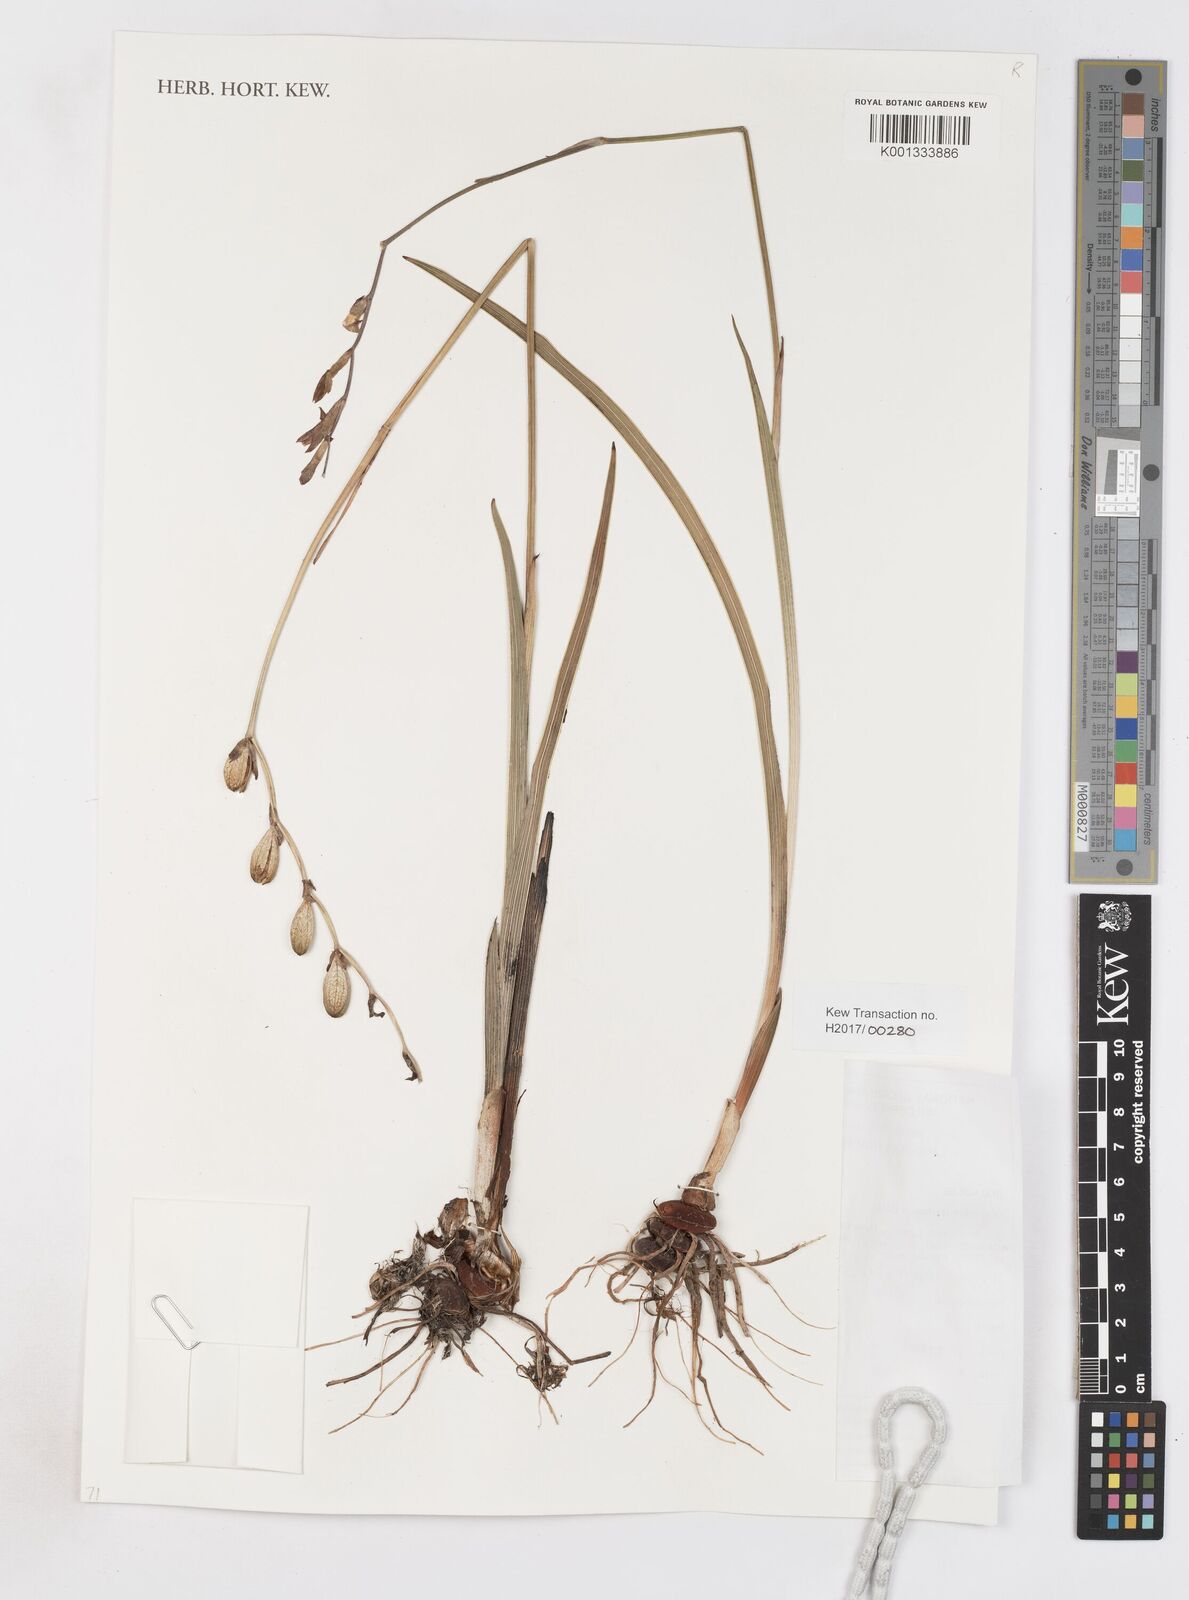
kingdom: Plantae
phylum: Tracheophyta
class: Liliopsida
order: Asparagales
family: Iridaceae
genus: Gladiolus
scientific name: Gladiolus laxiflorus
